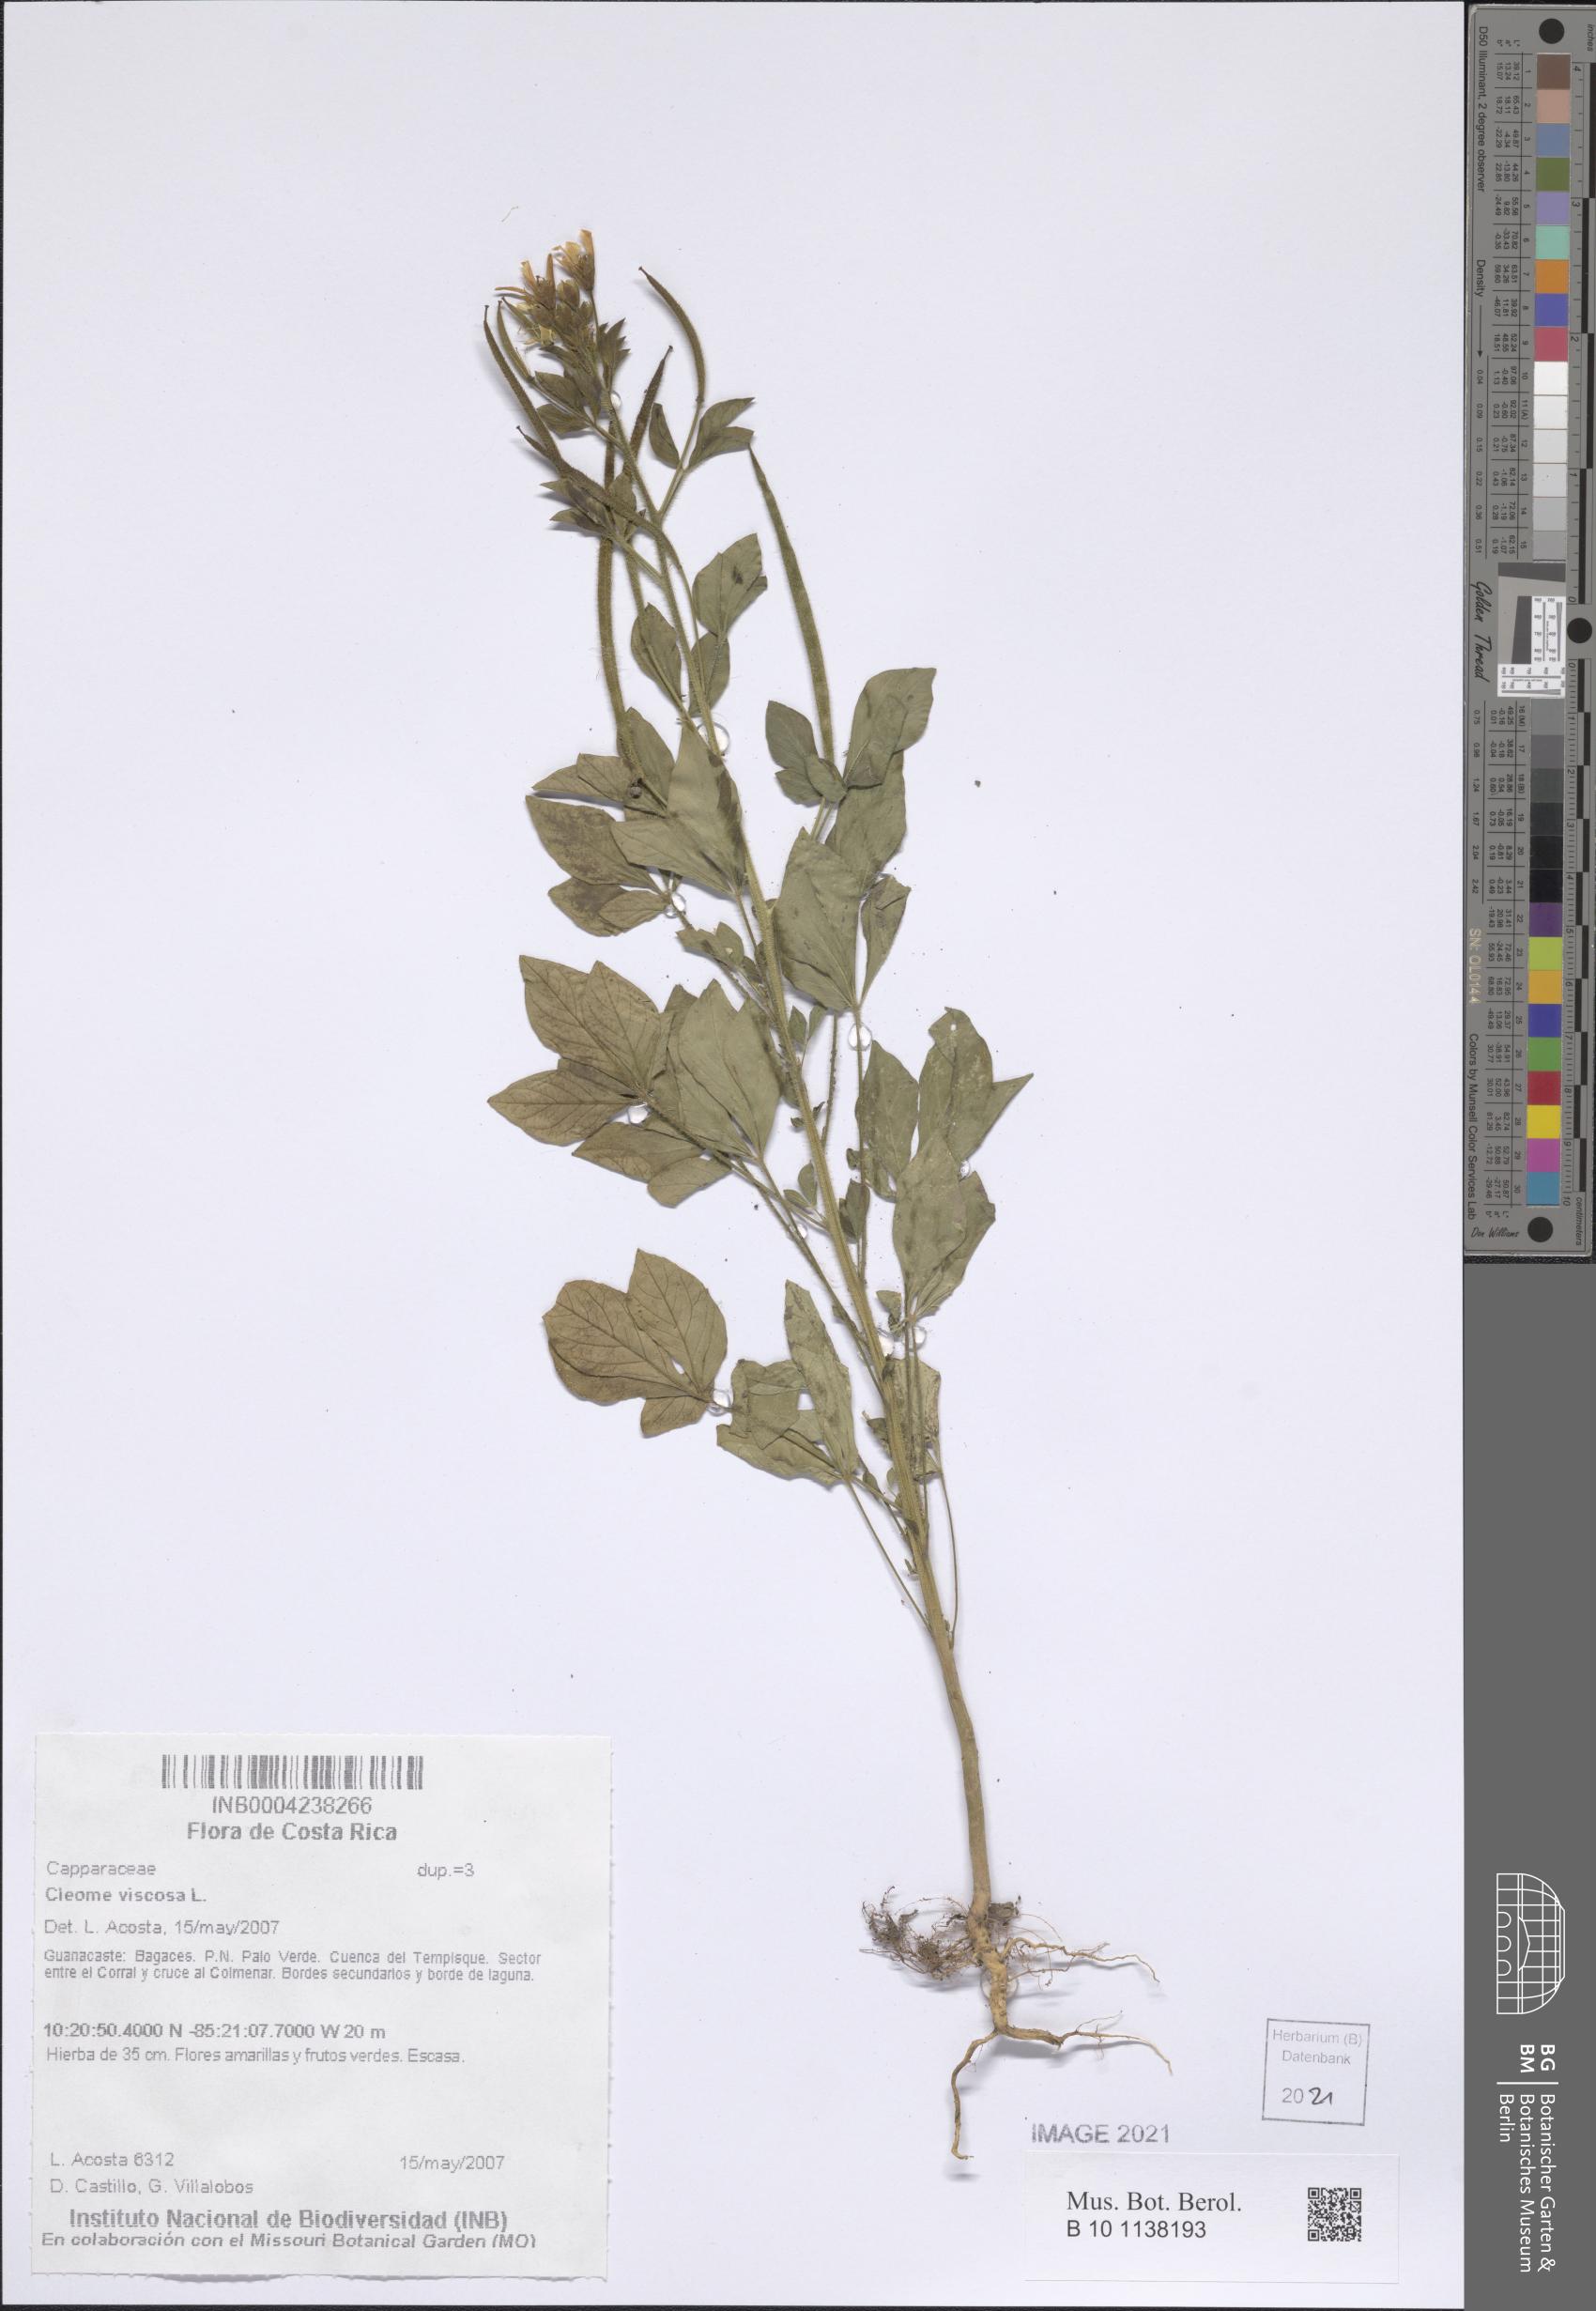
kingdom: Plantae
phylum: Tracheophyta
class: Magnoliopsida
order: Brassicales
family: Cleomaceae
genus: Arivela
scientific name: Arivela viscosa
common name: Asian spiderflower
